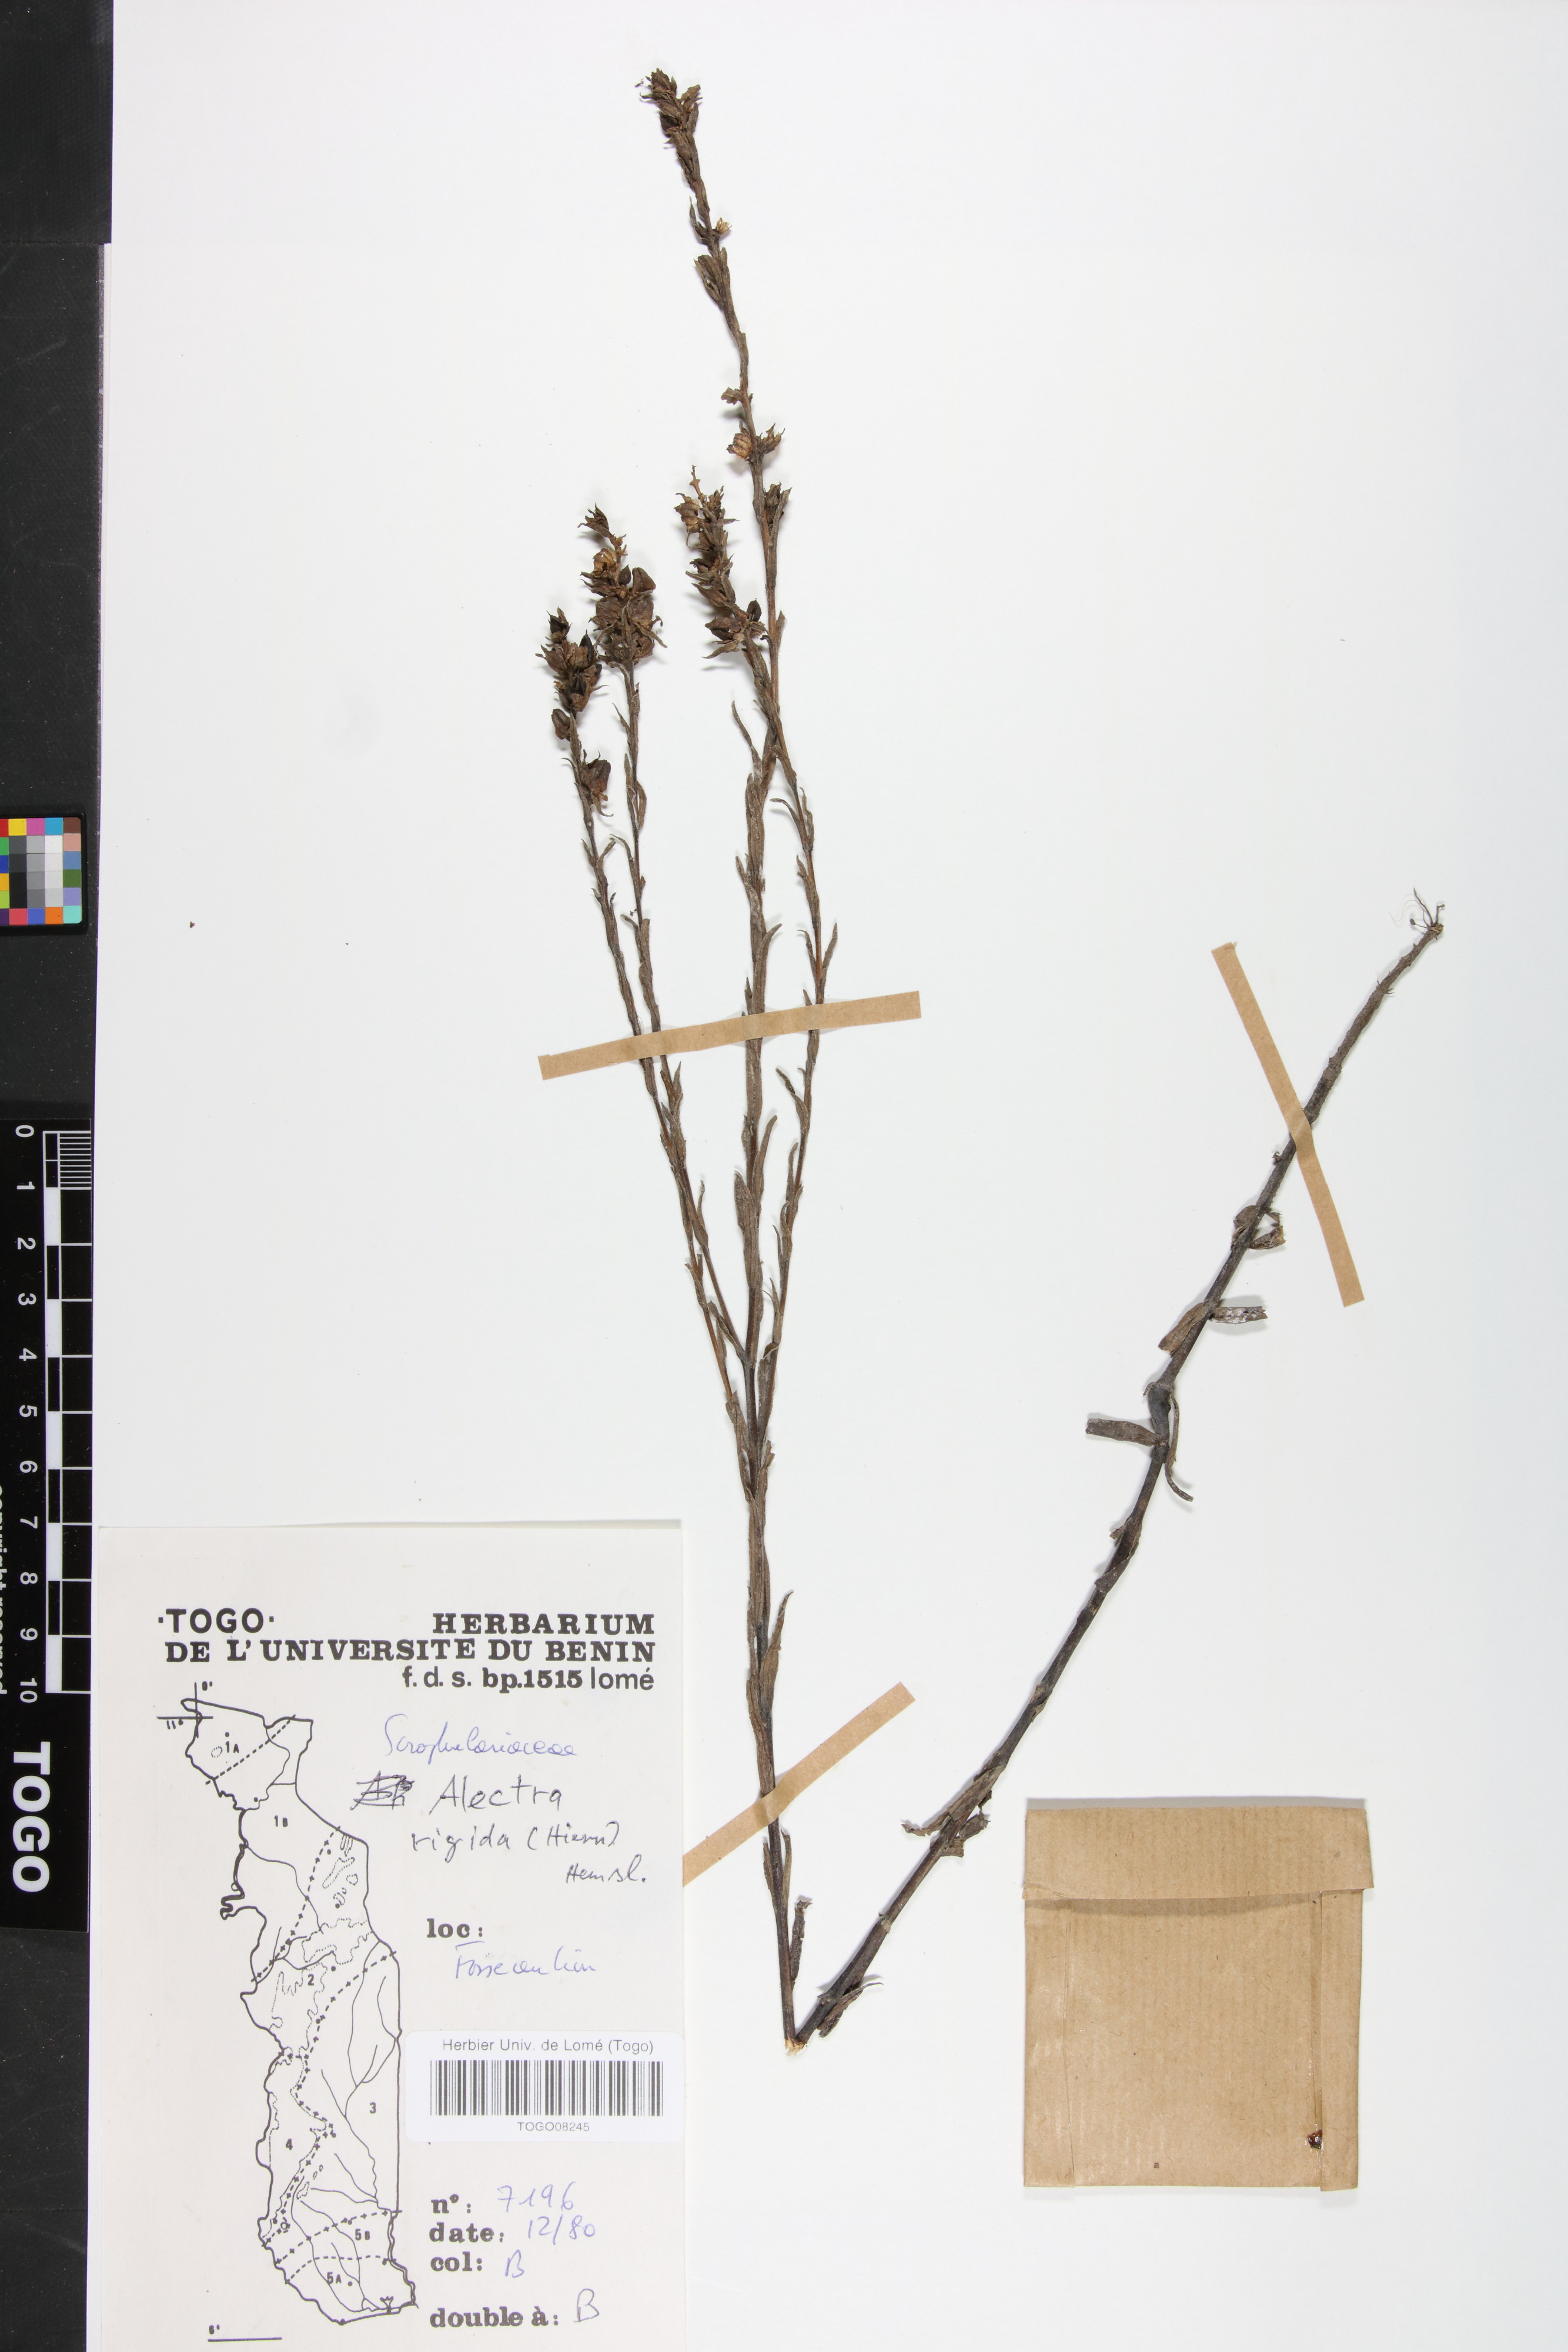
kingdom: Plantae
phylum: Tracheophyta
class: Magnoliopsida
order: Lamiales
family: Orobanchaceae
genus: Alectra
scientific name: Alectra rigida
